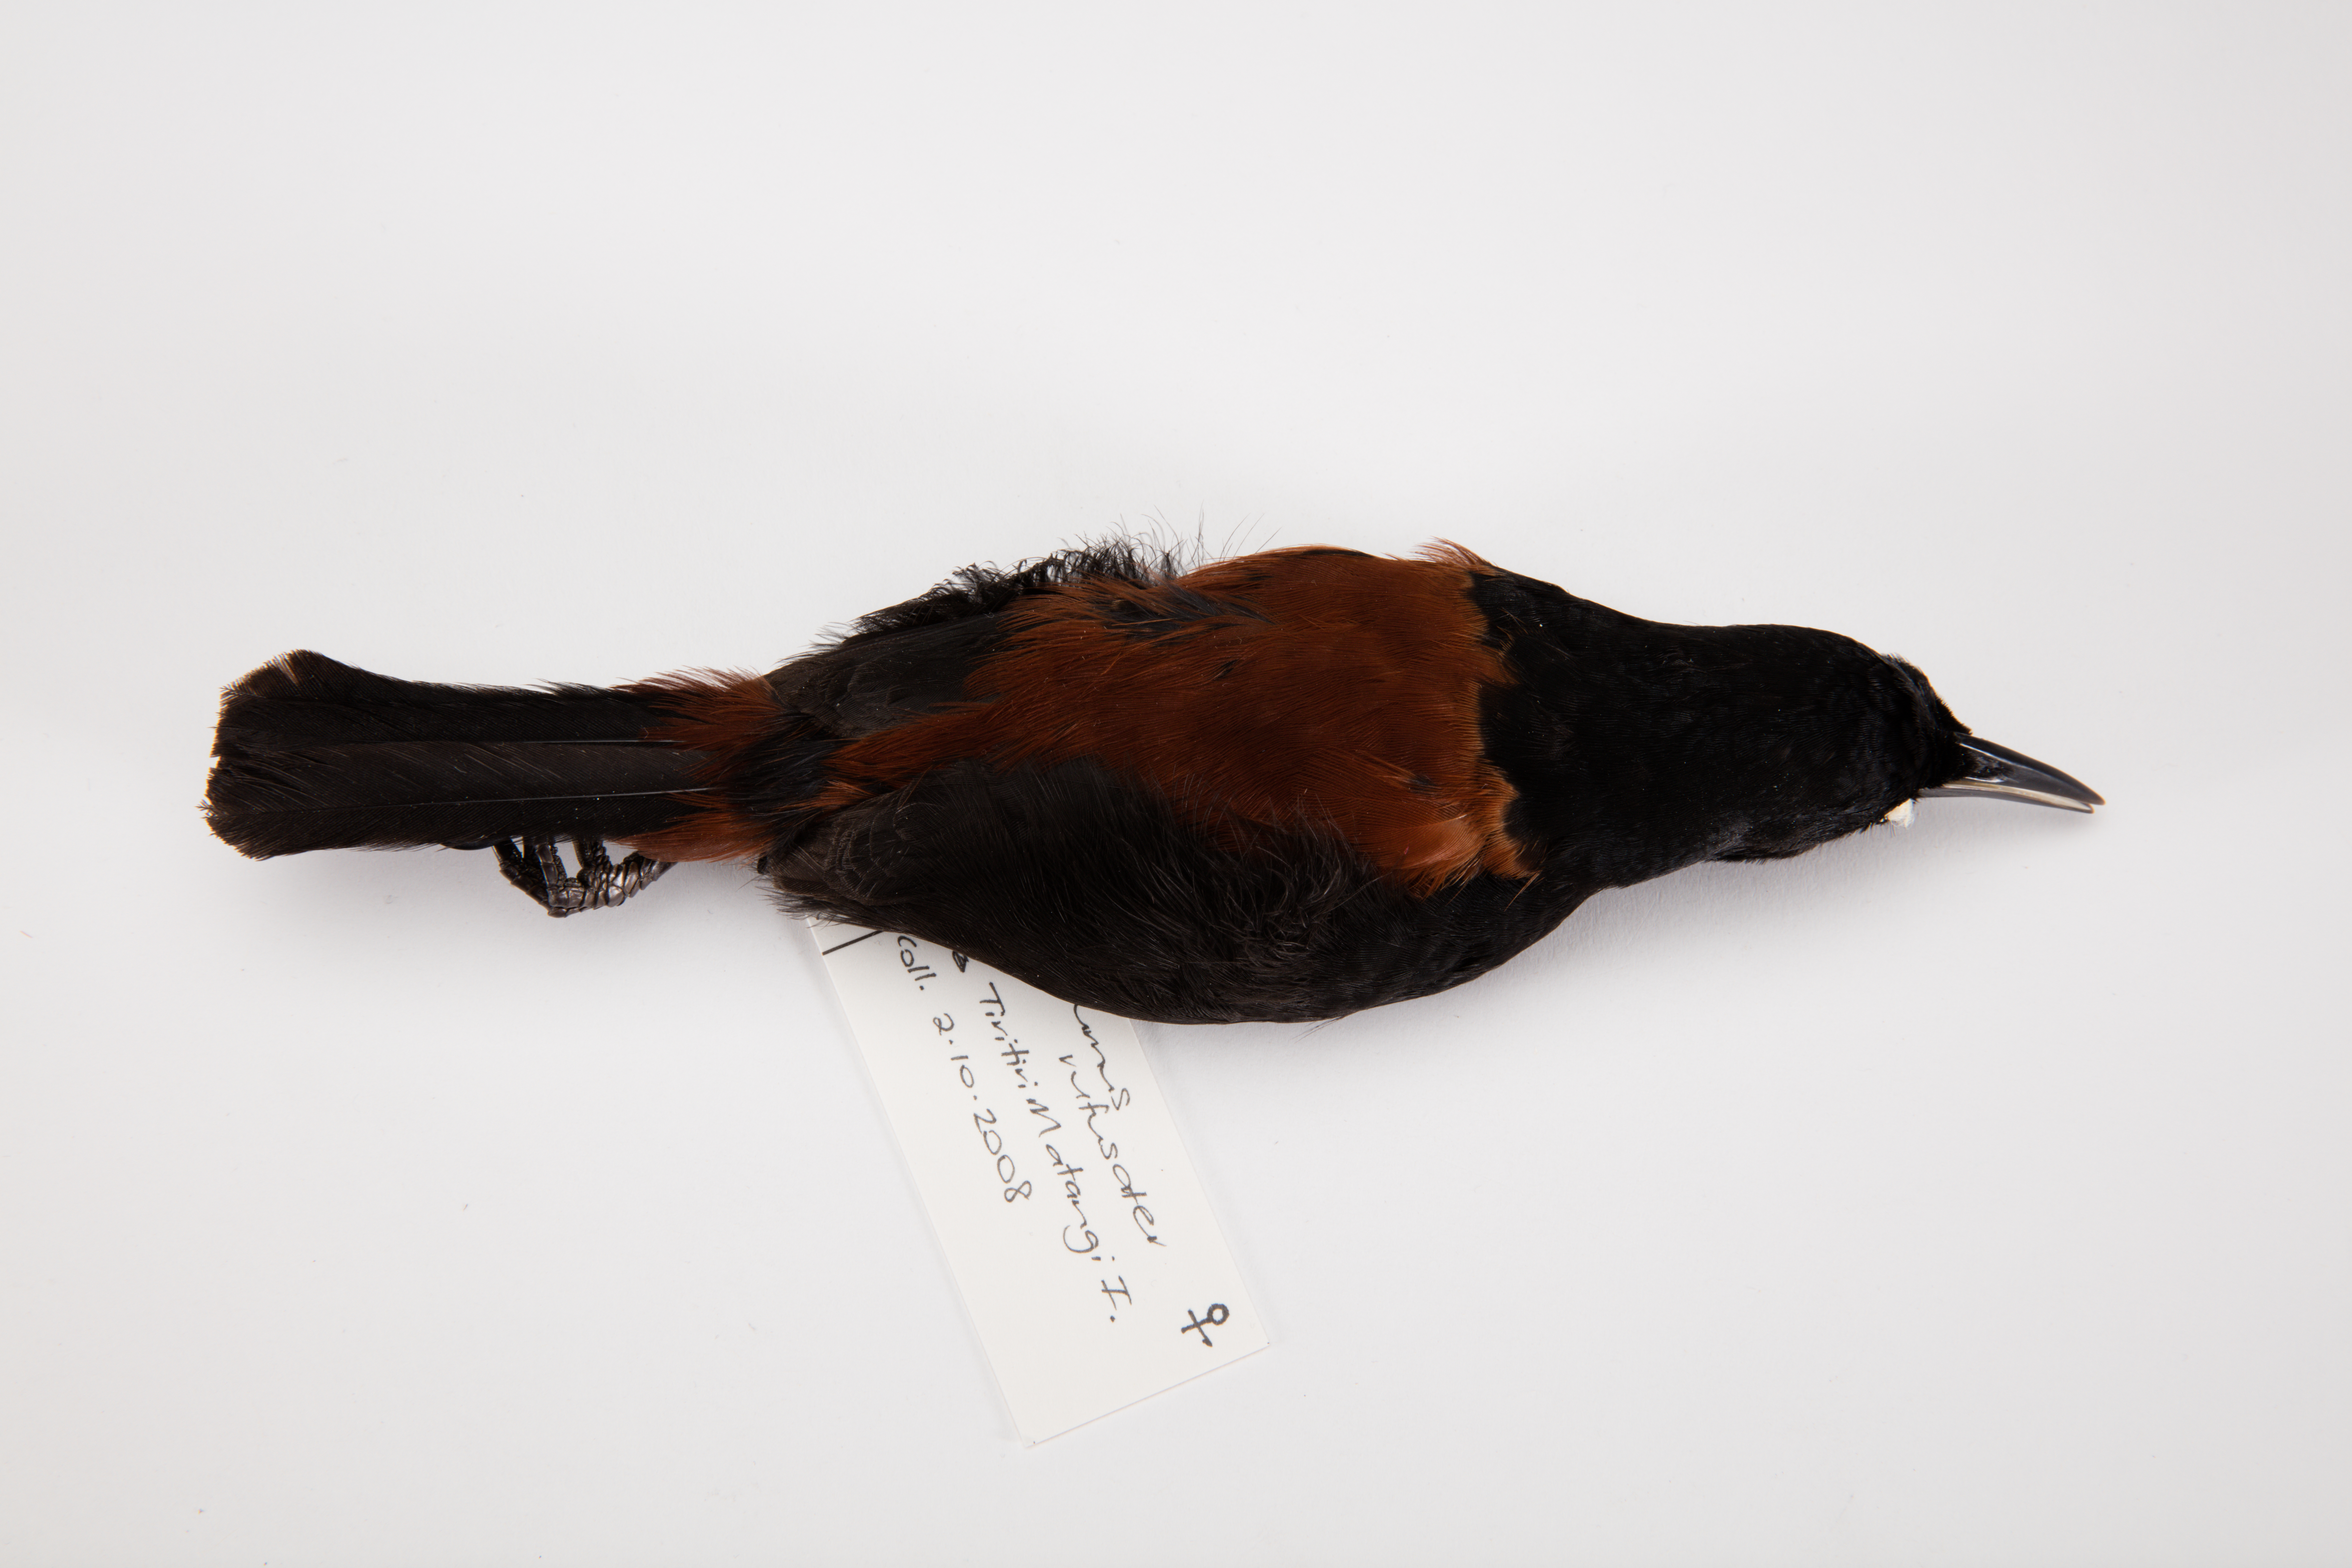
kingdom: Animalia
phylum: Chordata
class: Aves
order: Passeriformes
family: Callaeatidae
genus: Philesturnus
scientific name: Philesturnus carunculatus
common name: South island saddleback
